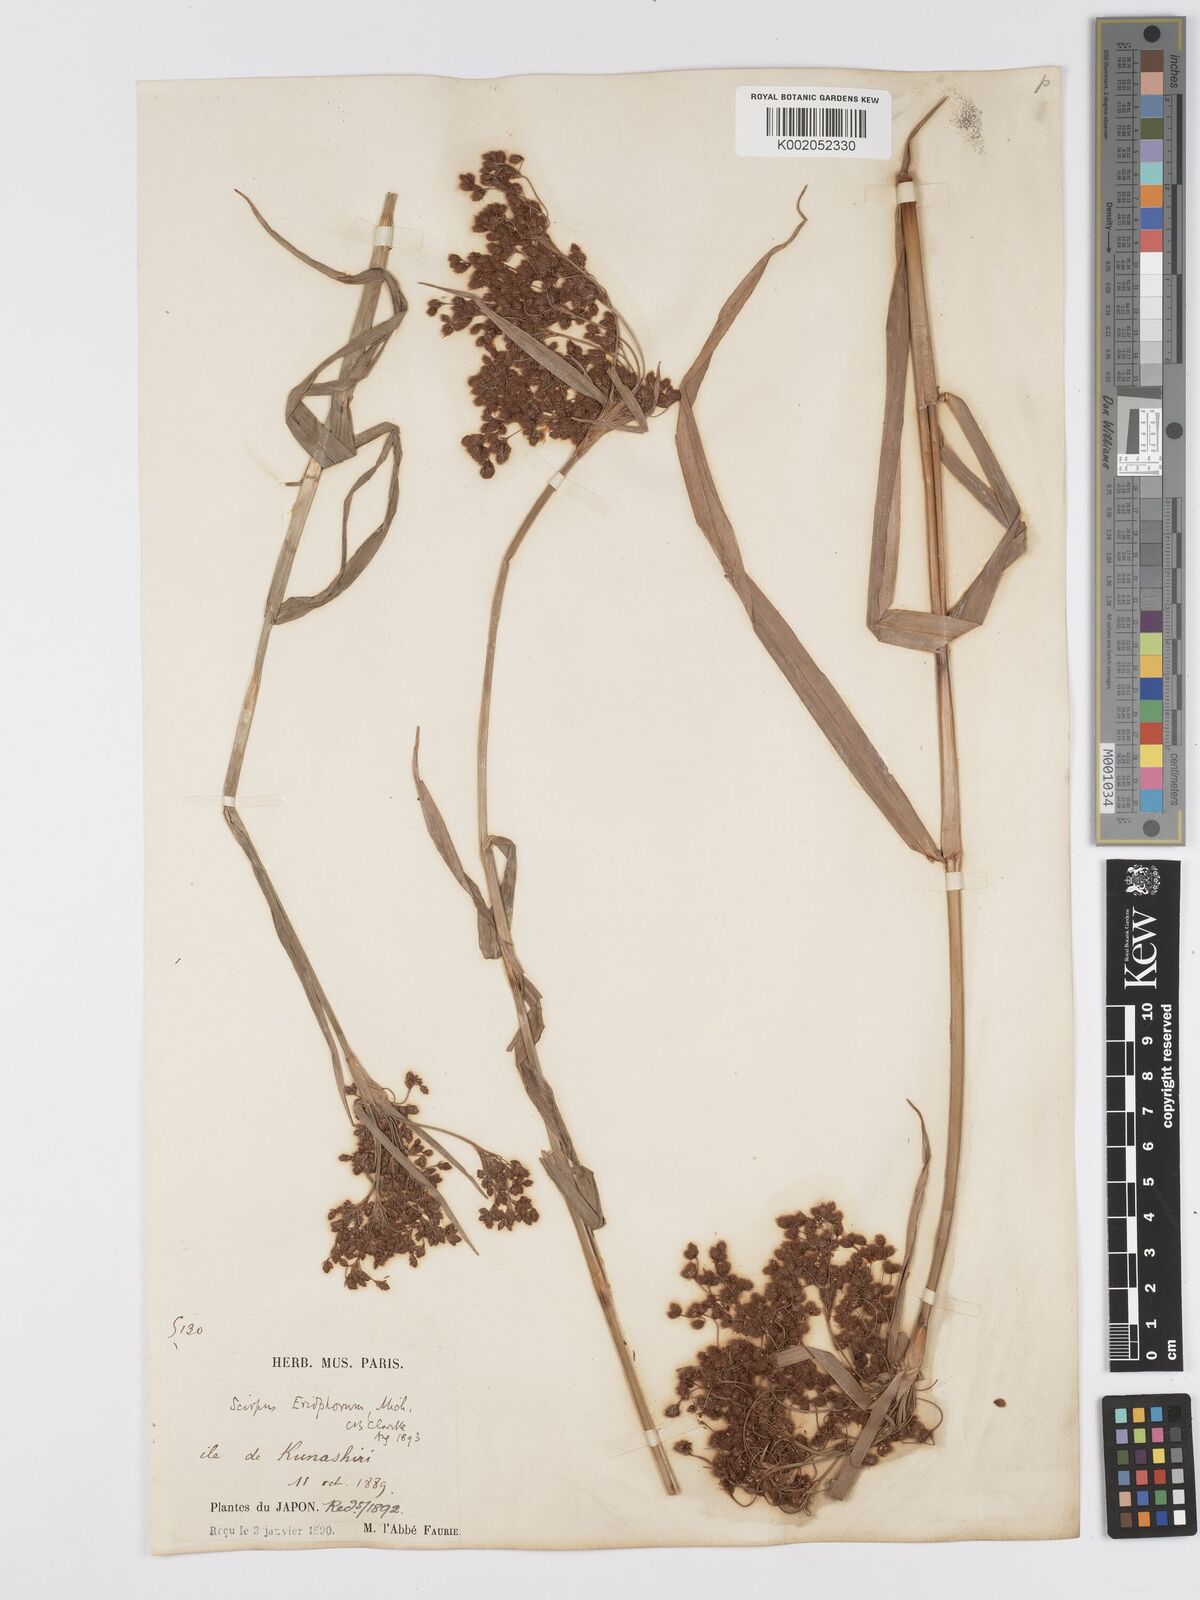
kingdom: Plantae
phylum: Tracheophyta
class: Liliopsida
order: Poales
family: Cyperaceae
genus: Scirpus
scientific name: Scirpus cyperinus
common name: Black-sheathed bulrush
